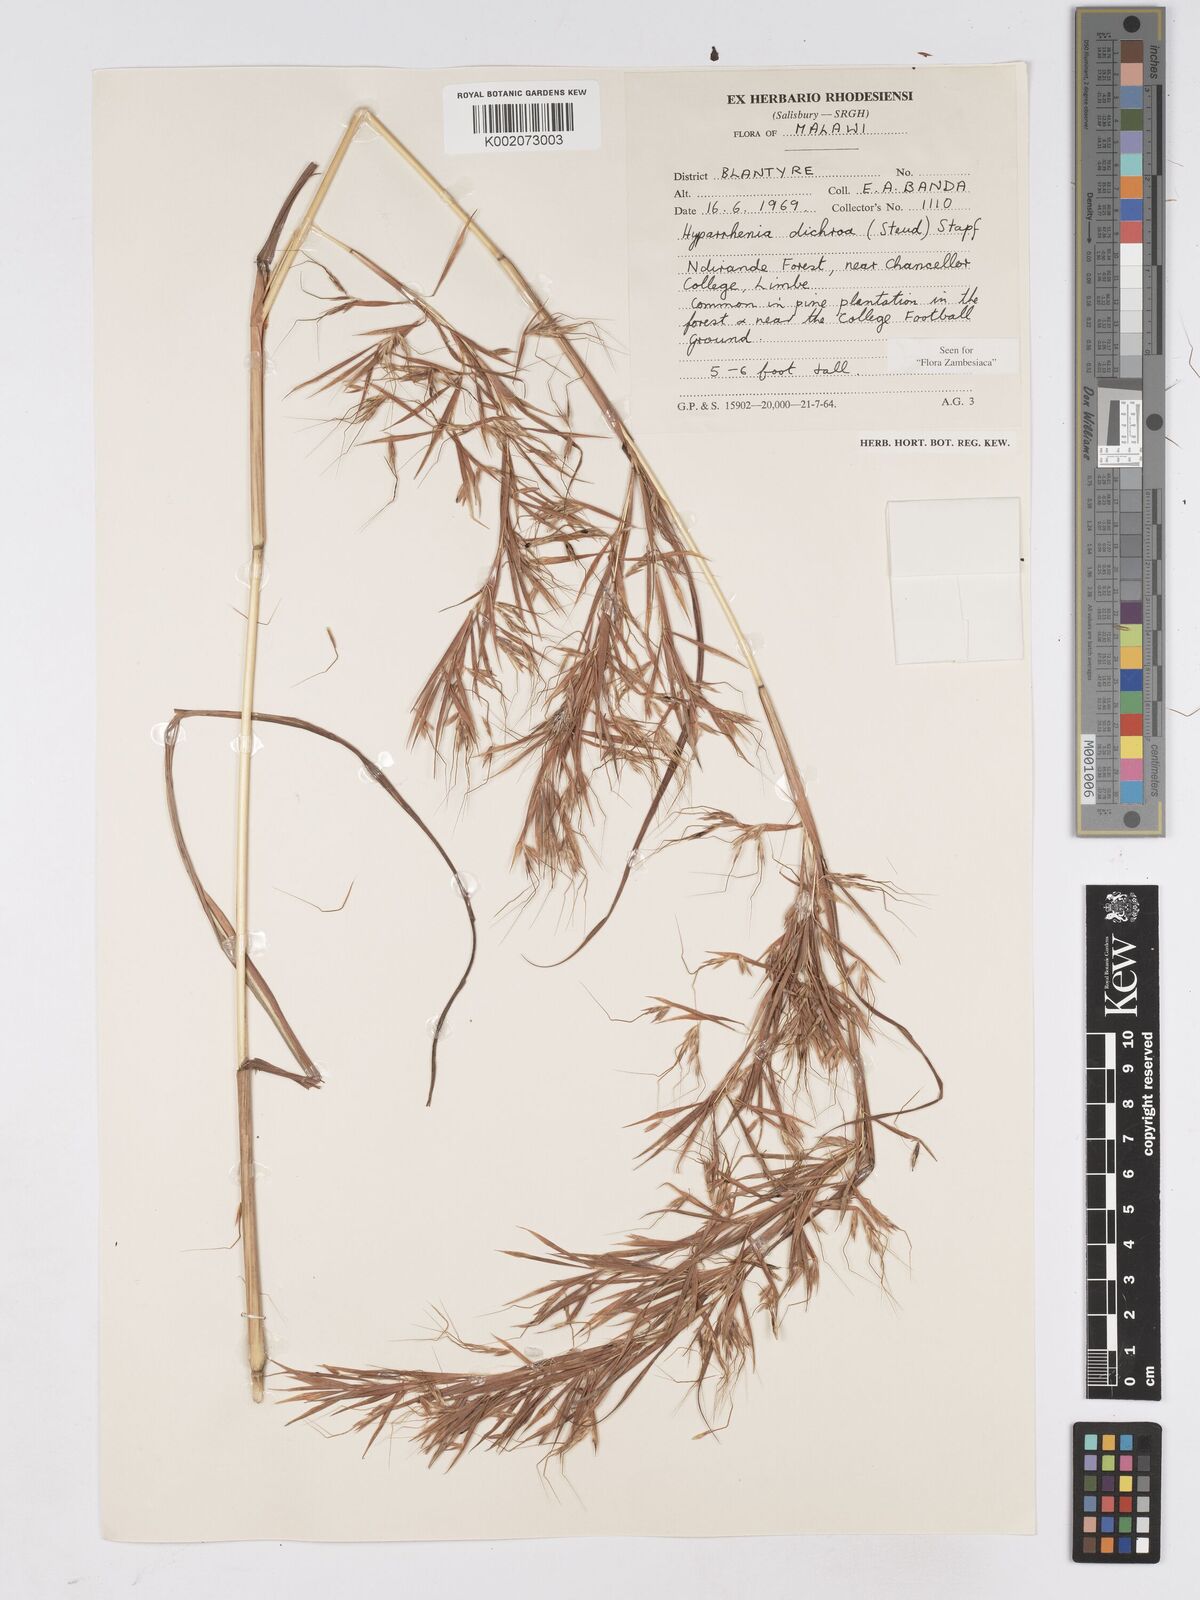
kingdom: Plantae
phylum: Tracheophyta
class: Liliopsida
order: Poales
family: Poaceae
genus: Hyparrhenia
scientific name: Hyparrhenia dichroa
